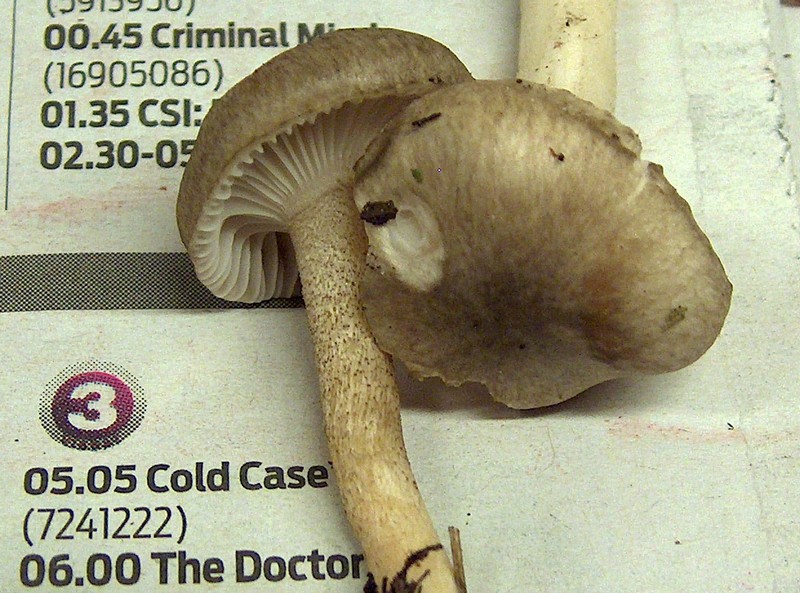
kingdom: Fungi
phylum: Basidiomycota
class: Agaricomycetes
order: Agaricales
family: Hygrophoraceae
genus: Hygrophorus
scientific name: Hygrophorus pustulatus
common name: mørkprikket sneglehat
